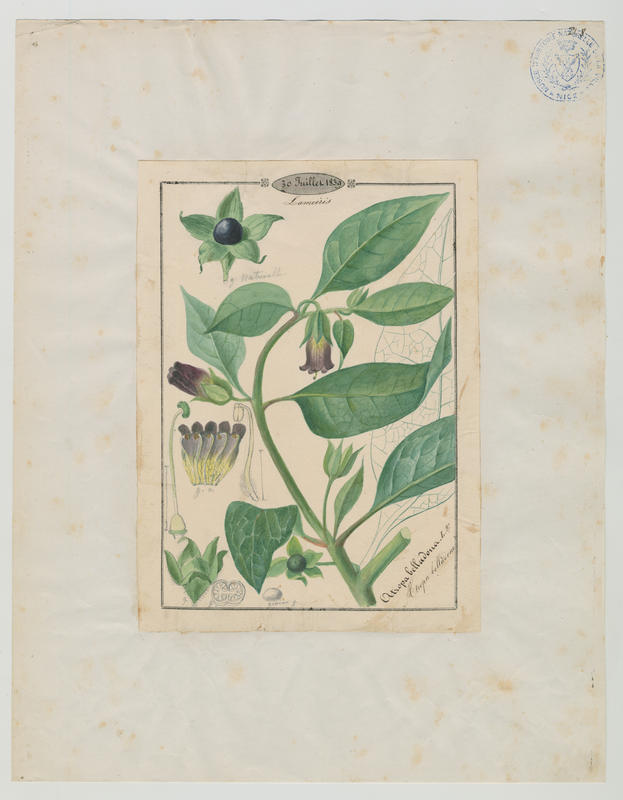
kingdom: Plantae
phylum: Tracheophyta
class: Magnoliopsida
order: Solanales
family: Solanaceae
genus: Atropa
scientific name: Atropa belladonna
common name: Deadly nightshade
